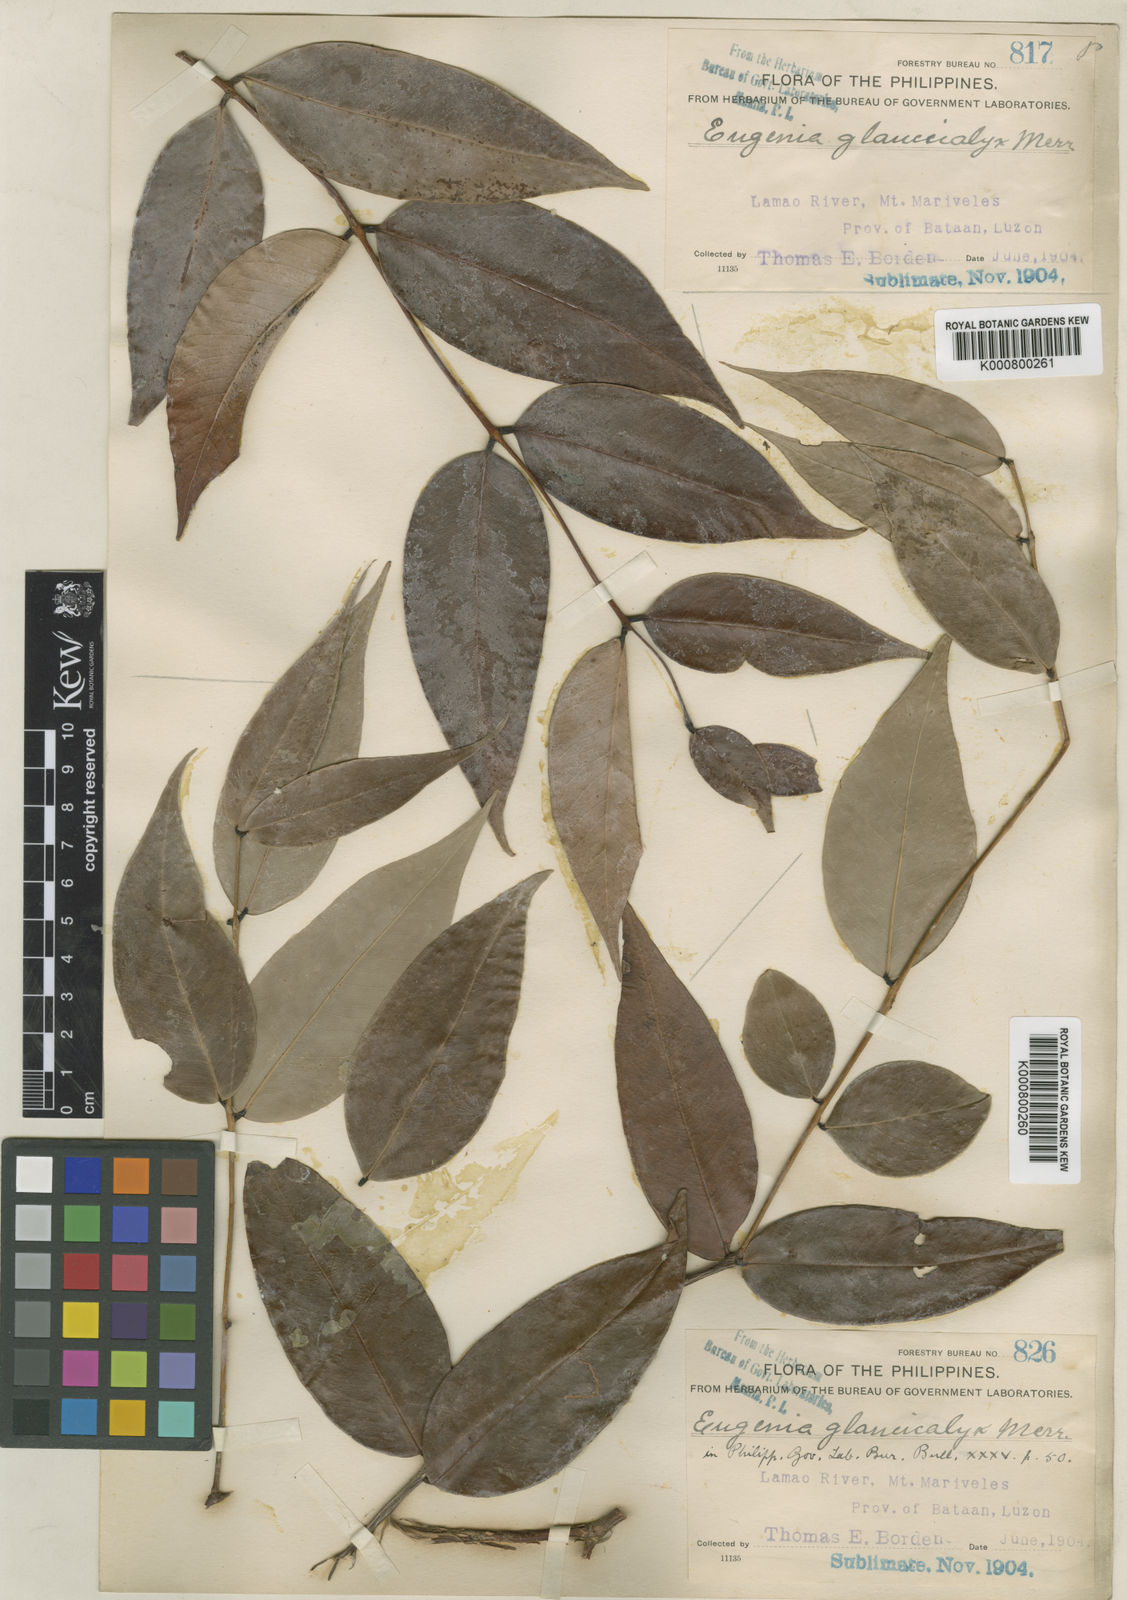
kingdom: Plantae
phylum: Tracheophyta
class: Magnoliopsida
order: Myrtales
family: Myrtaceae
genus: Syzygium
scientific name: Syzygium antisepticum
